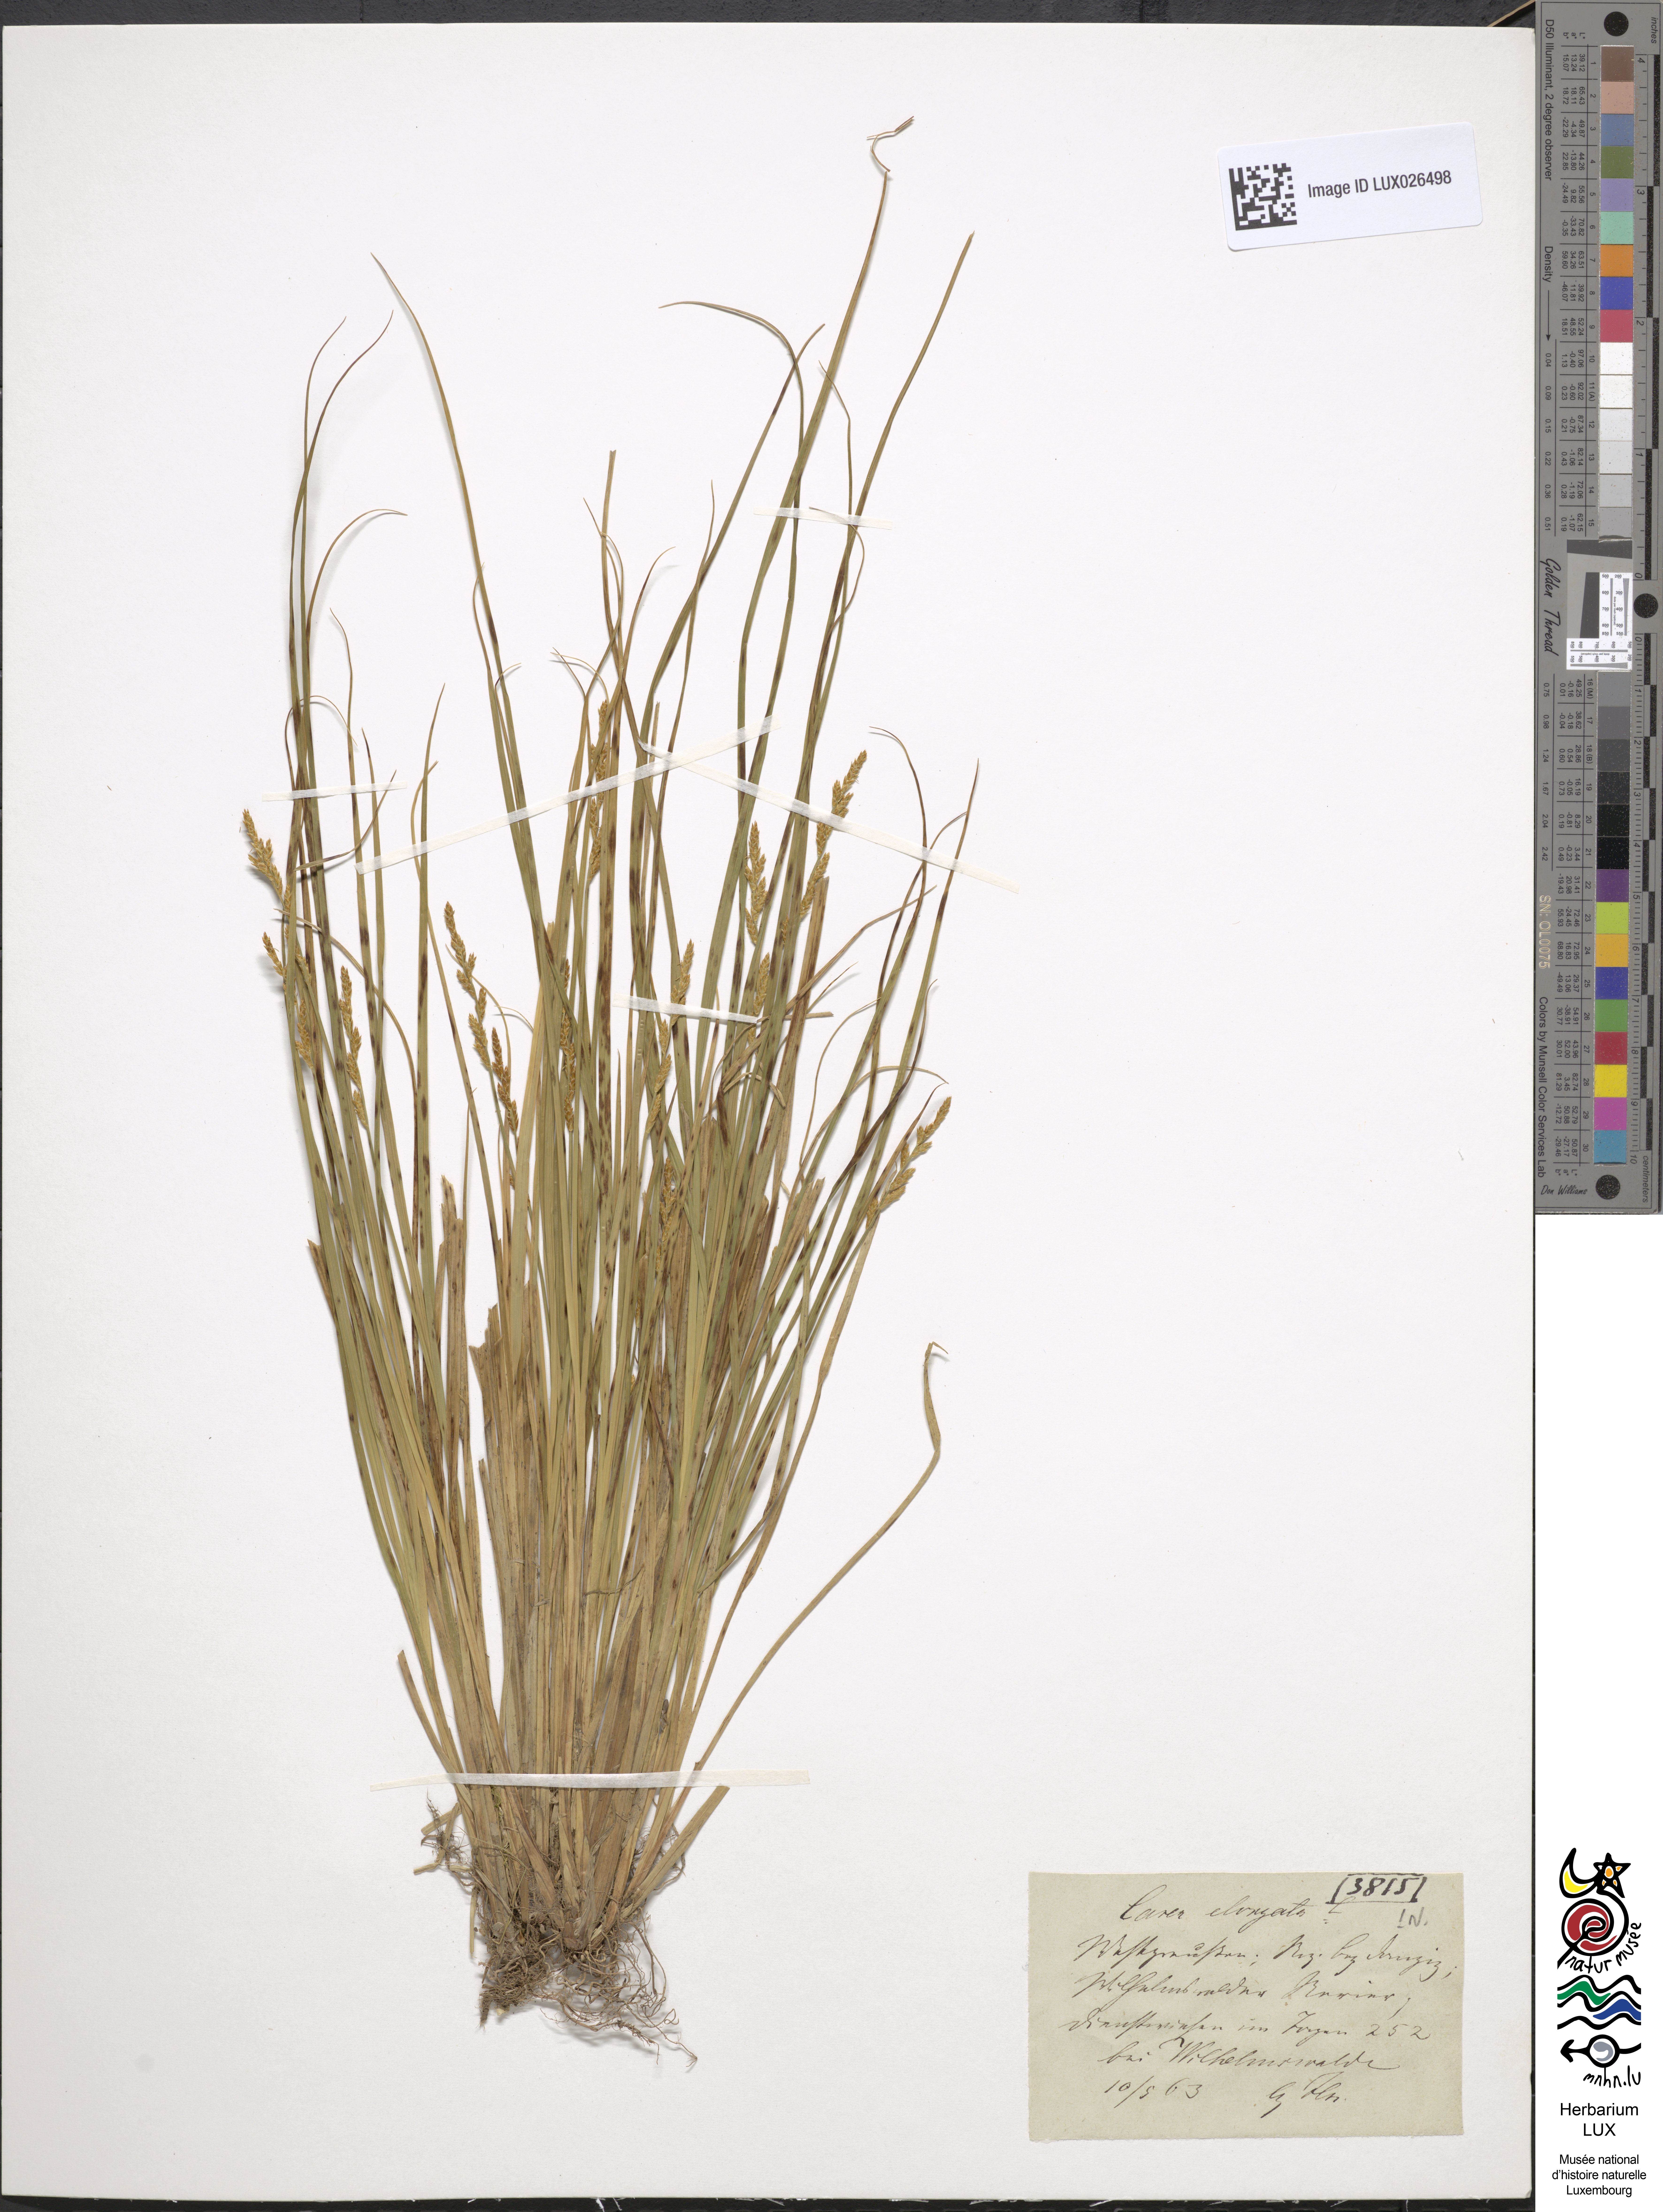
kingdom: Plantae
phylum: Tracheophyta
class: Liliopsida
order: Poales
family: Cyperaceae
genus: Carex
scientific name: Carex elongata
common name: Elongated sedge
